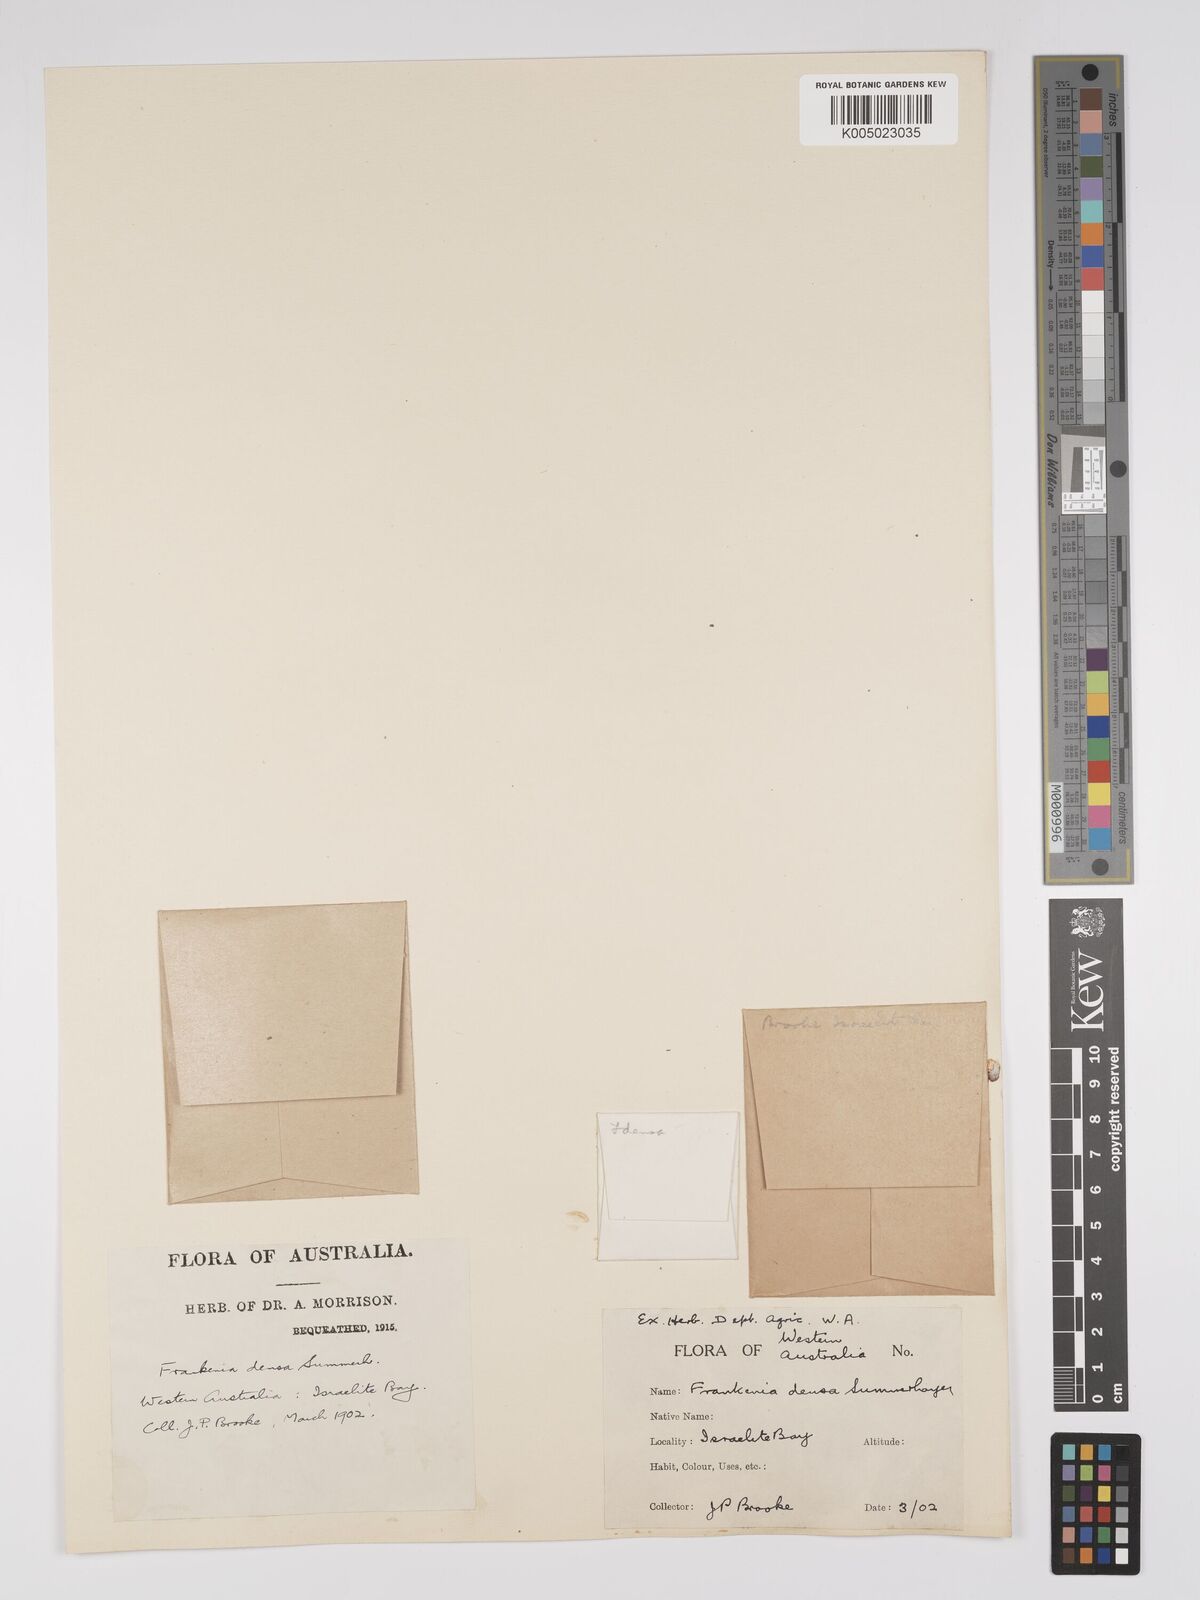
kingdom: Plantae
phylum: Tracheophyta
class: Magnoliopsida
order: Caryophyllales
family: Frankeniaceae
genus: Frankenia
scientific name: Frankenia
